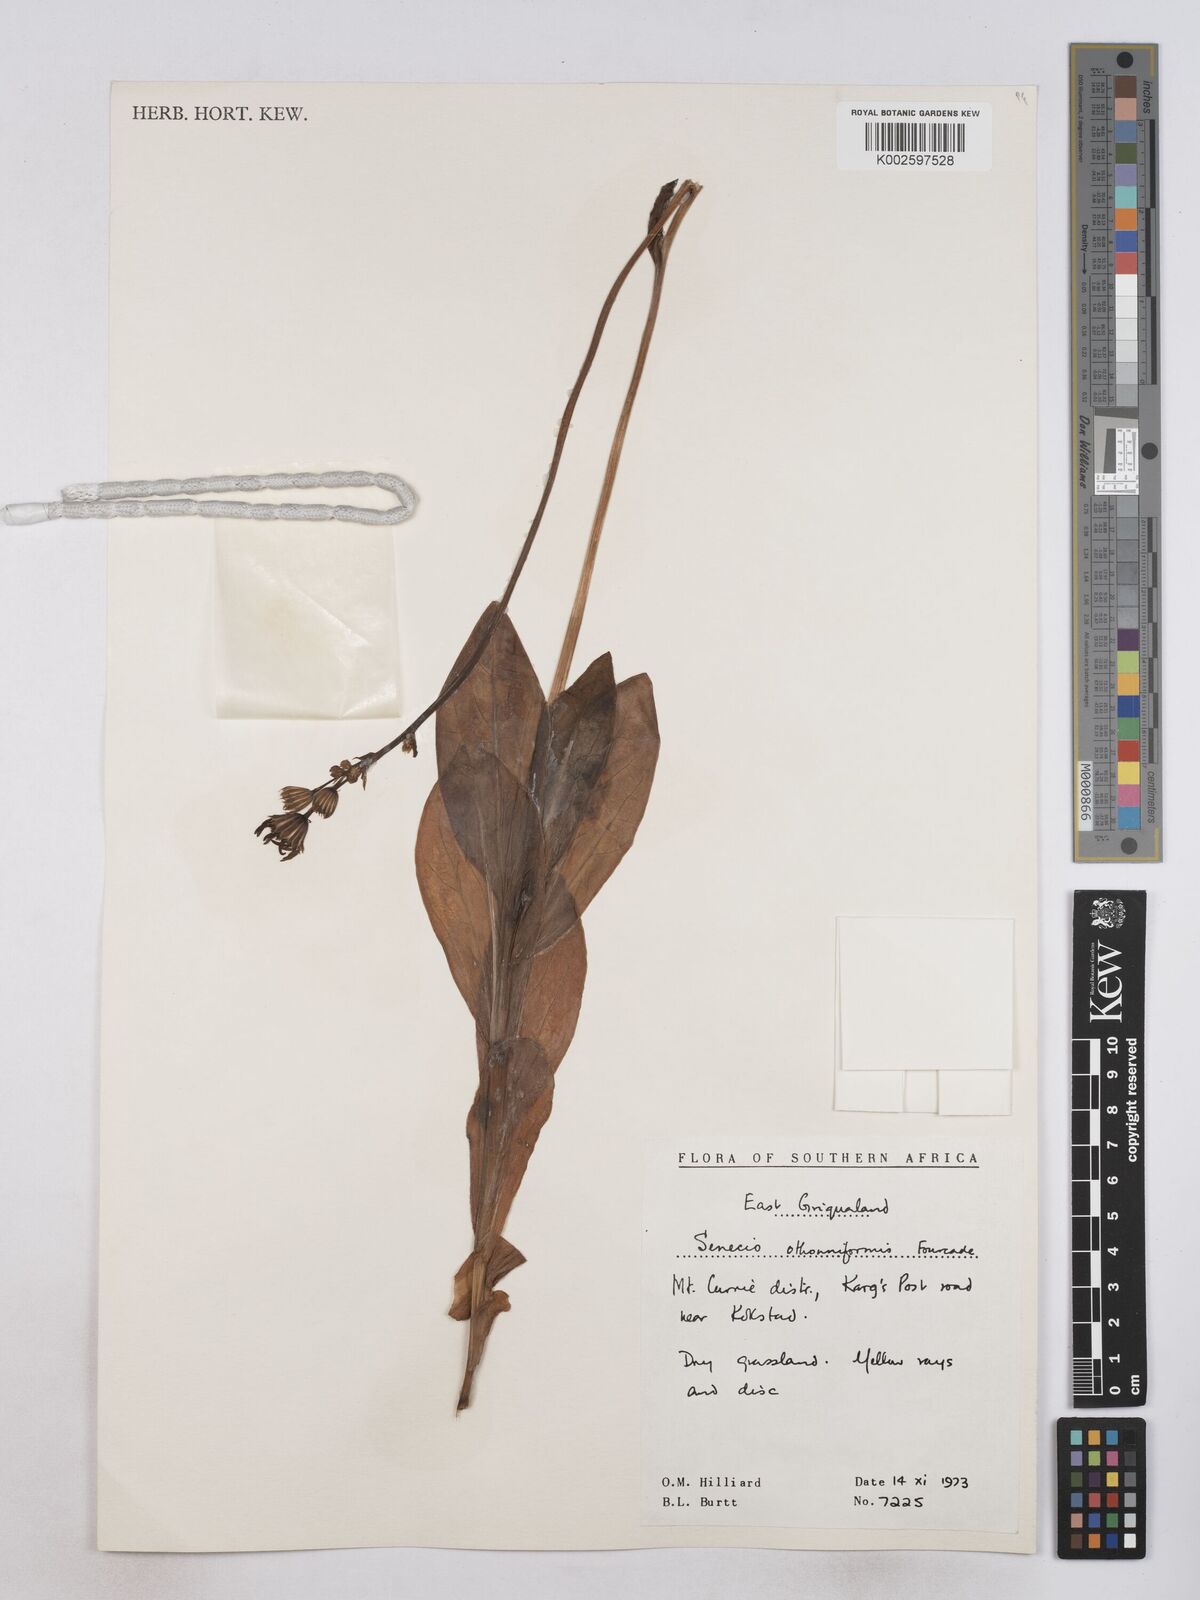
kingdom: Plantae
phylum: Tracheophyta
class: Magnoliopsida
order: Asterales
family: Asteraceae
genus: Senecio
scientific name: Senecio othonniflorus
